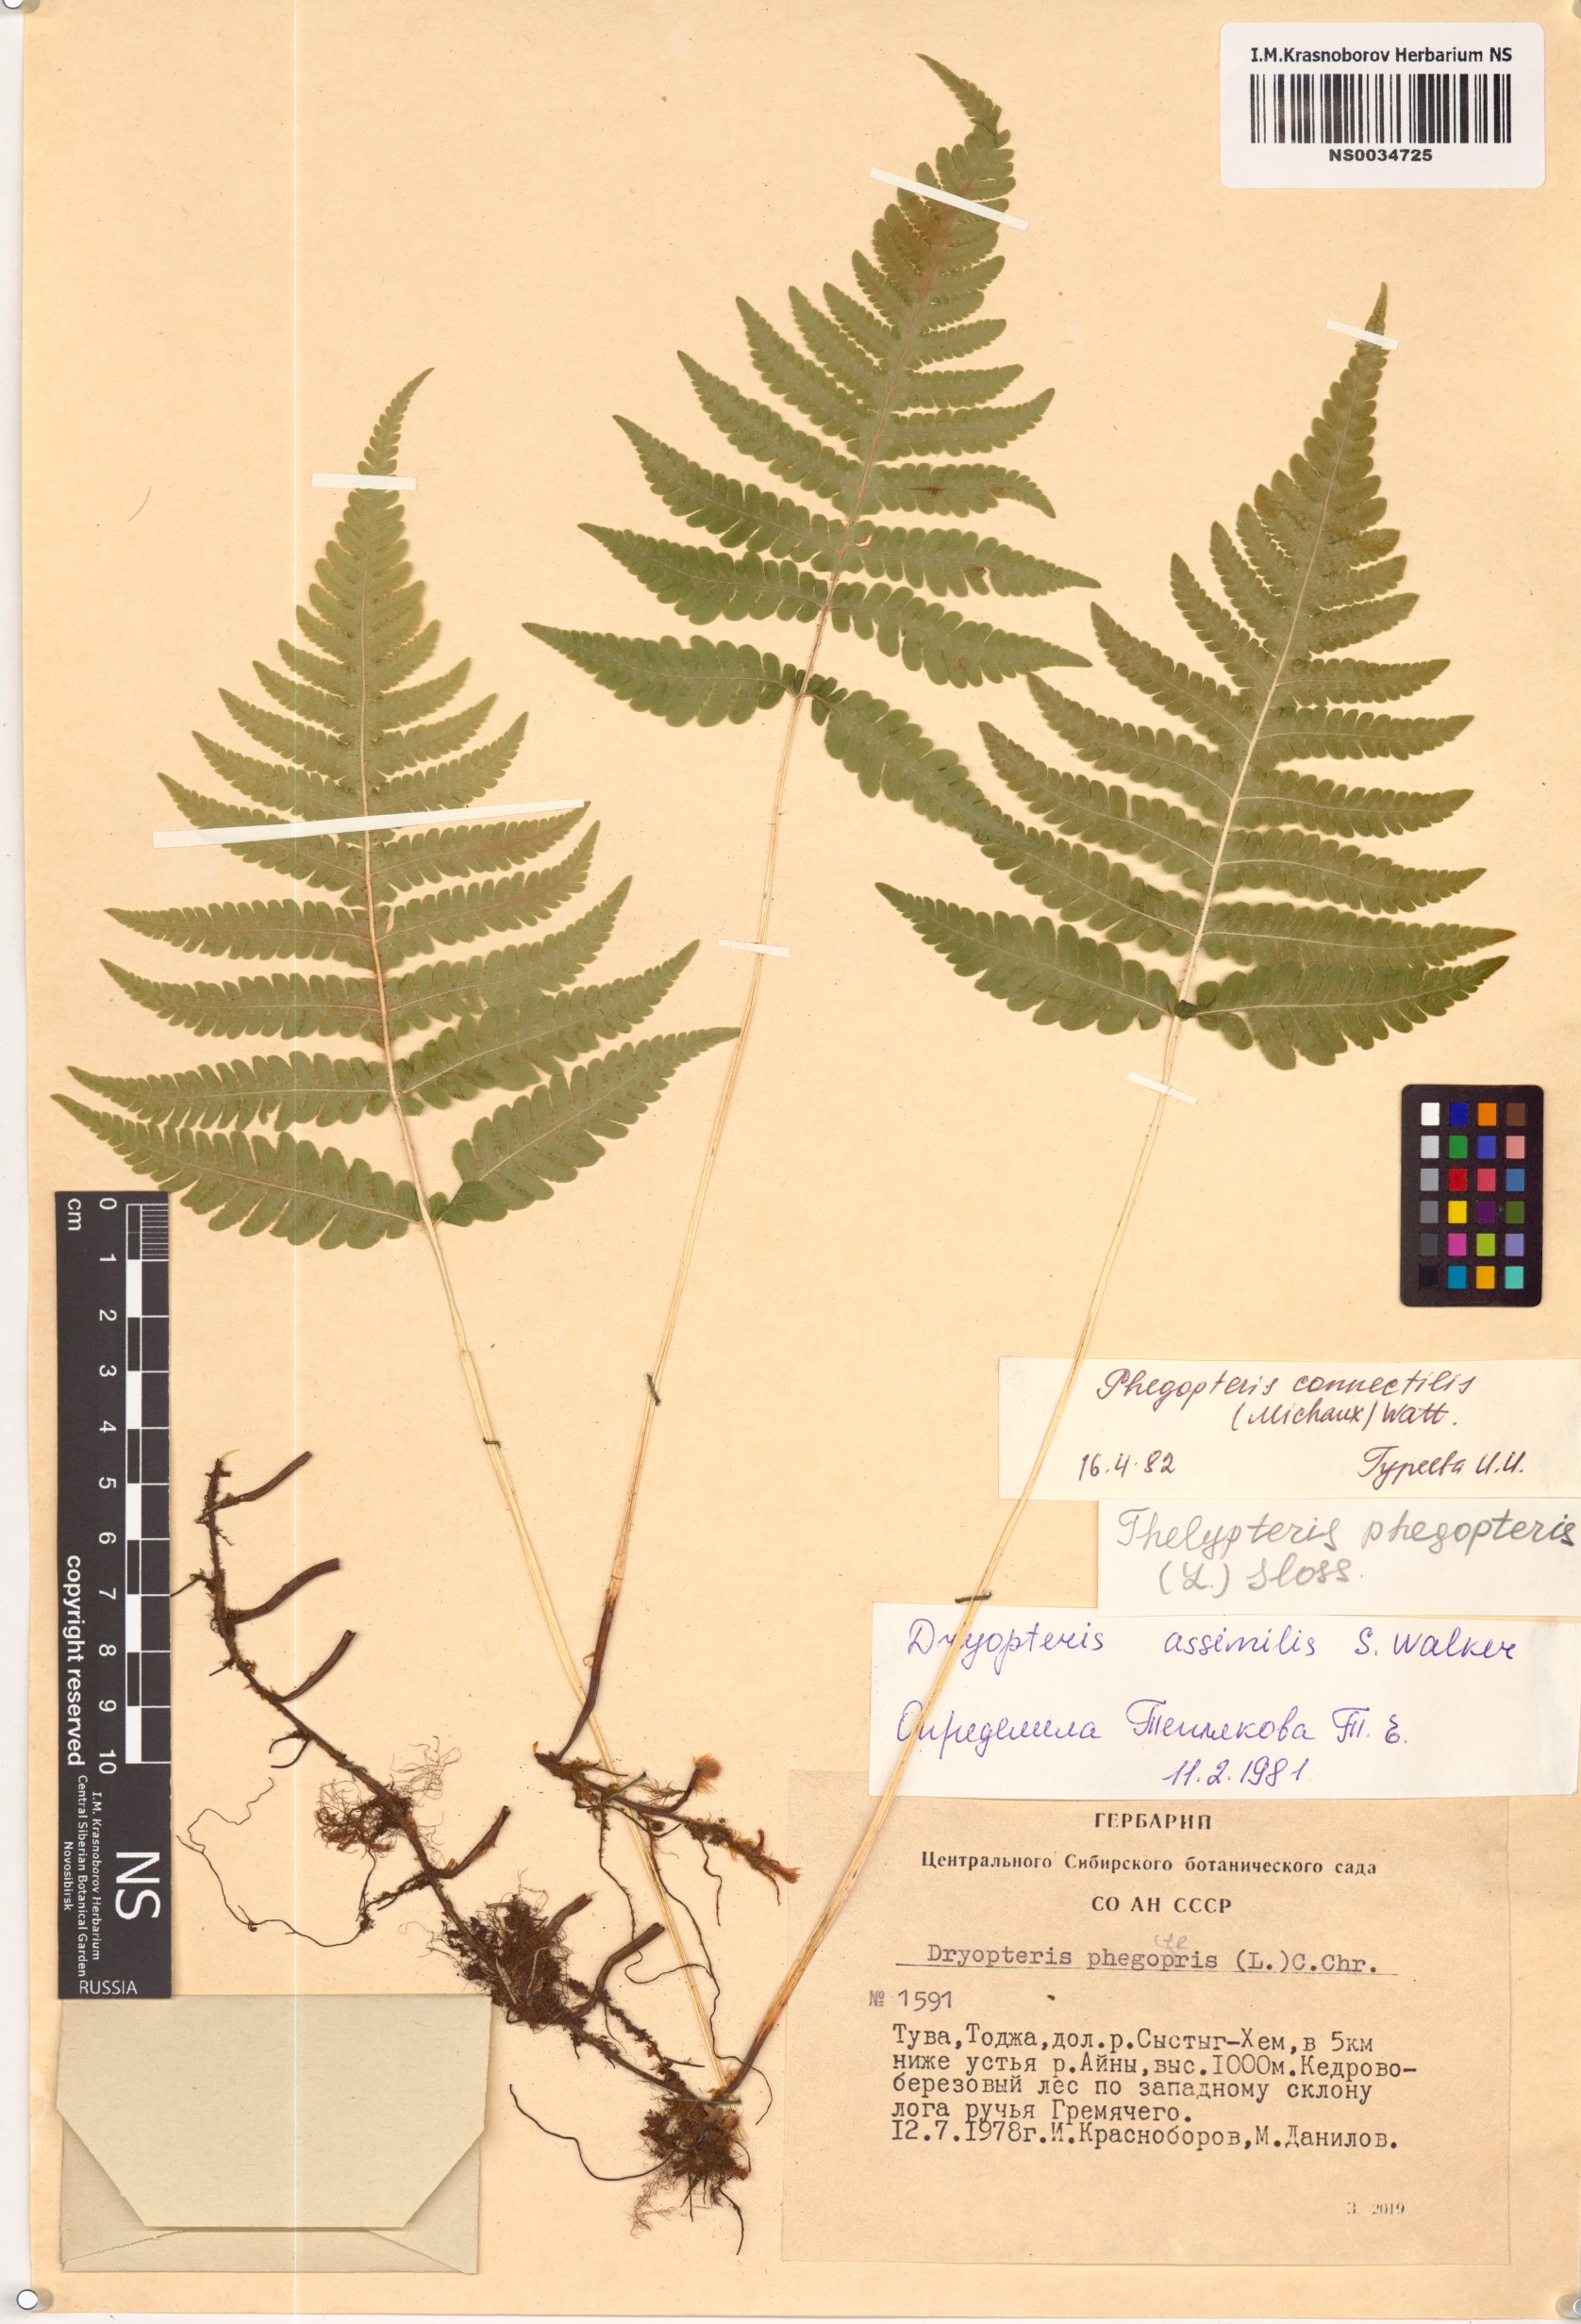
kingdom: Plantae
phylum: Tracheophyta
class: Polypodiopsida
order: Polypodiales
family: Thelypteridaceae
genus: Phegopteris
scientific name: Phegopteris connectilis
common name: Beech fern
